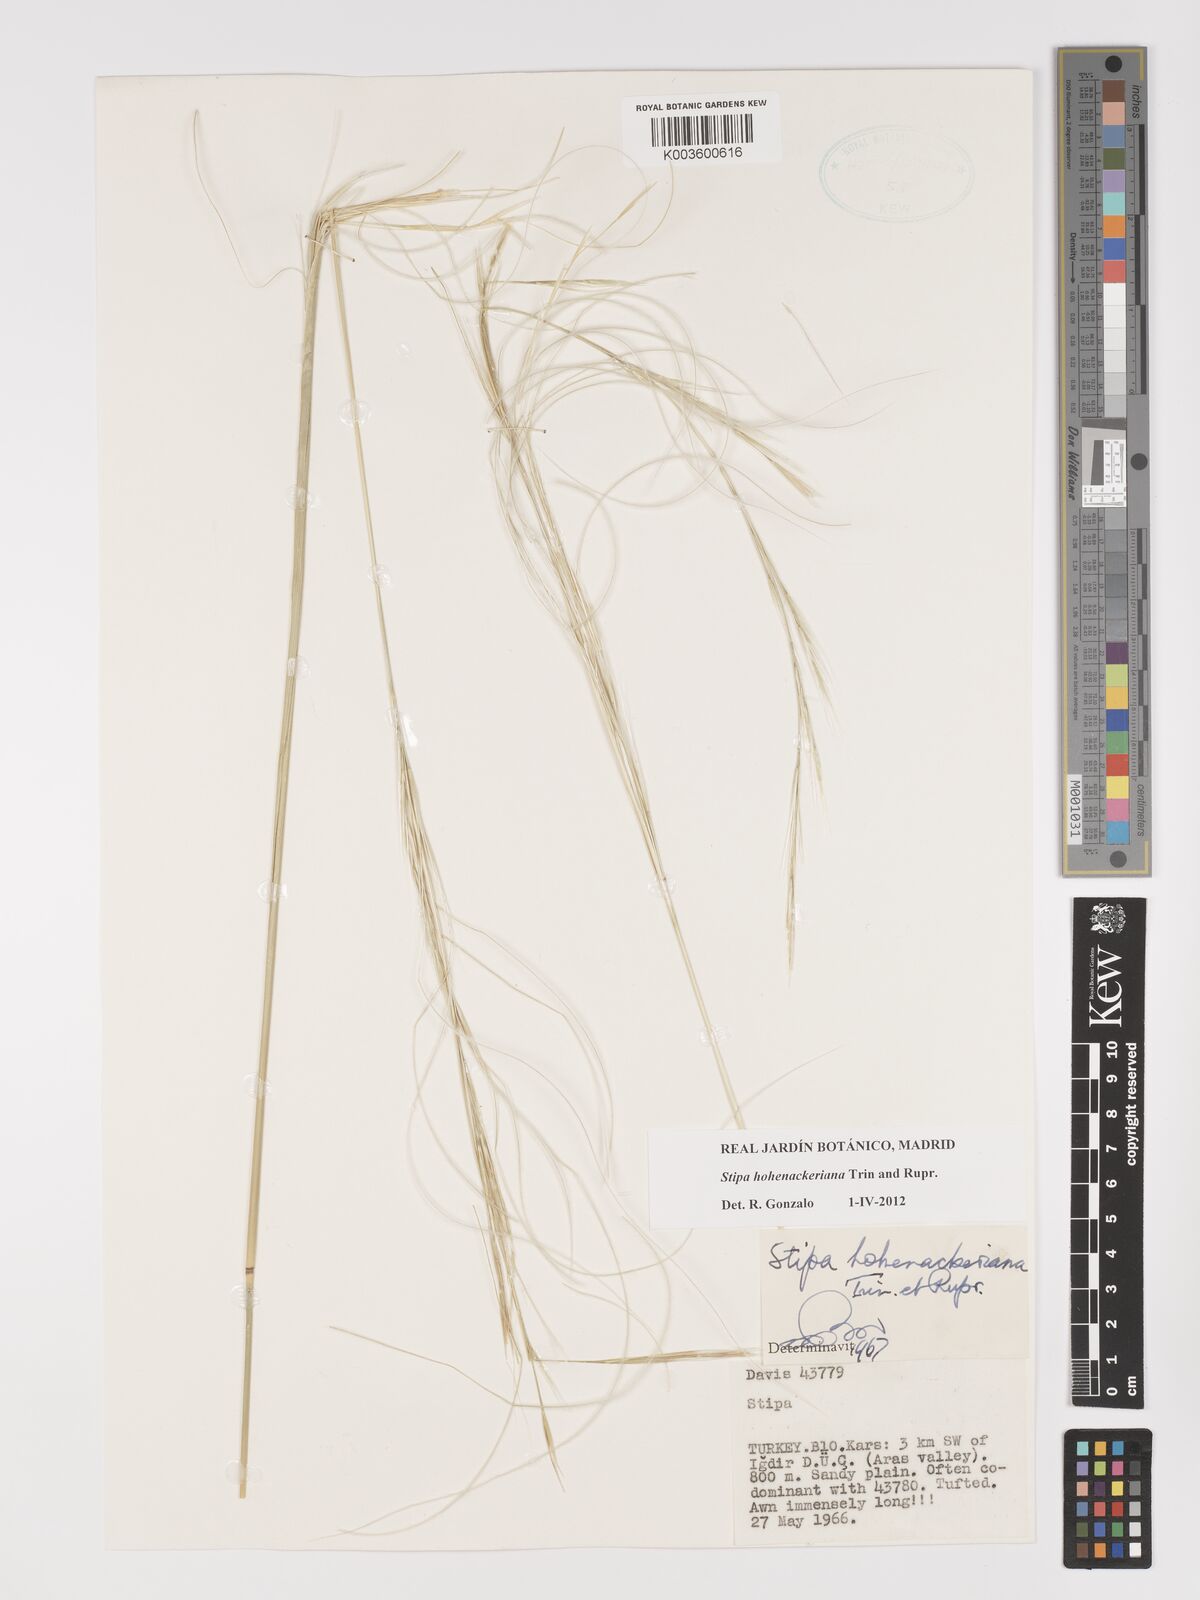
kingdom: Plantae
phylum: Tracheophyta
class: Liliopsida
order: Poales
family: Poaceae
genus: Stipa
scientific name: Stipa hohenackeriana
